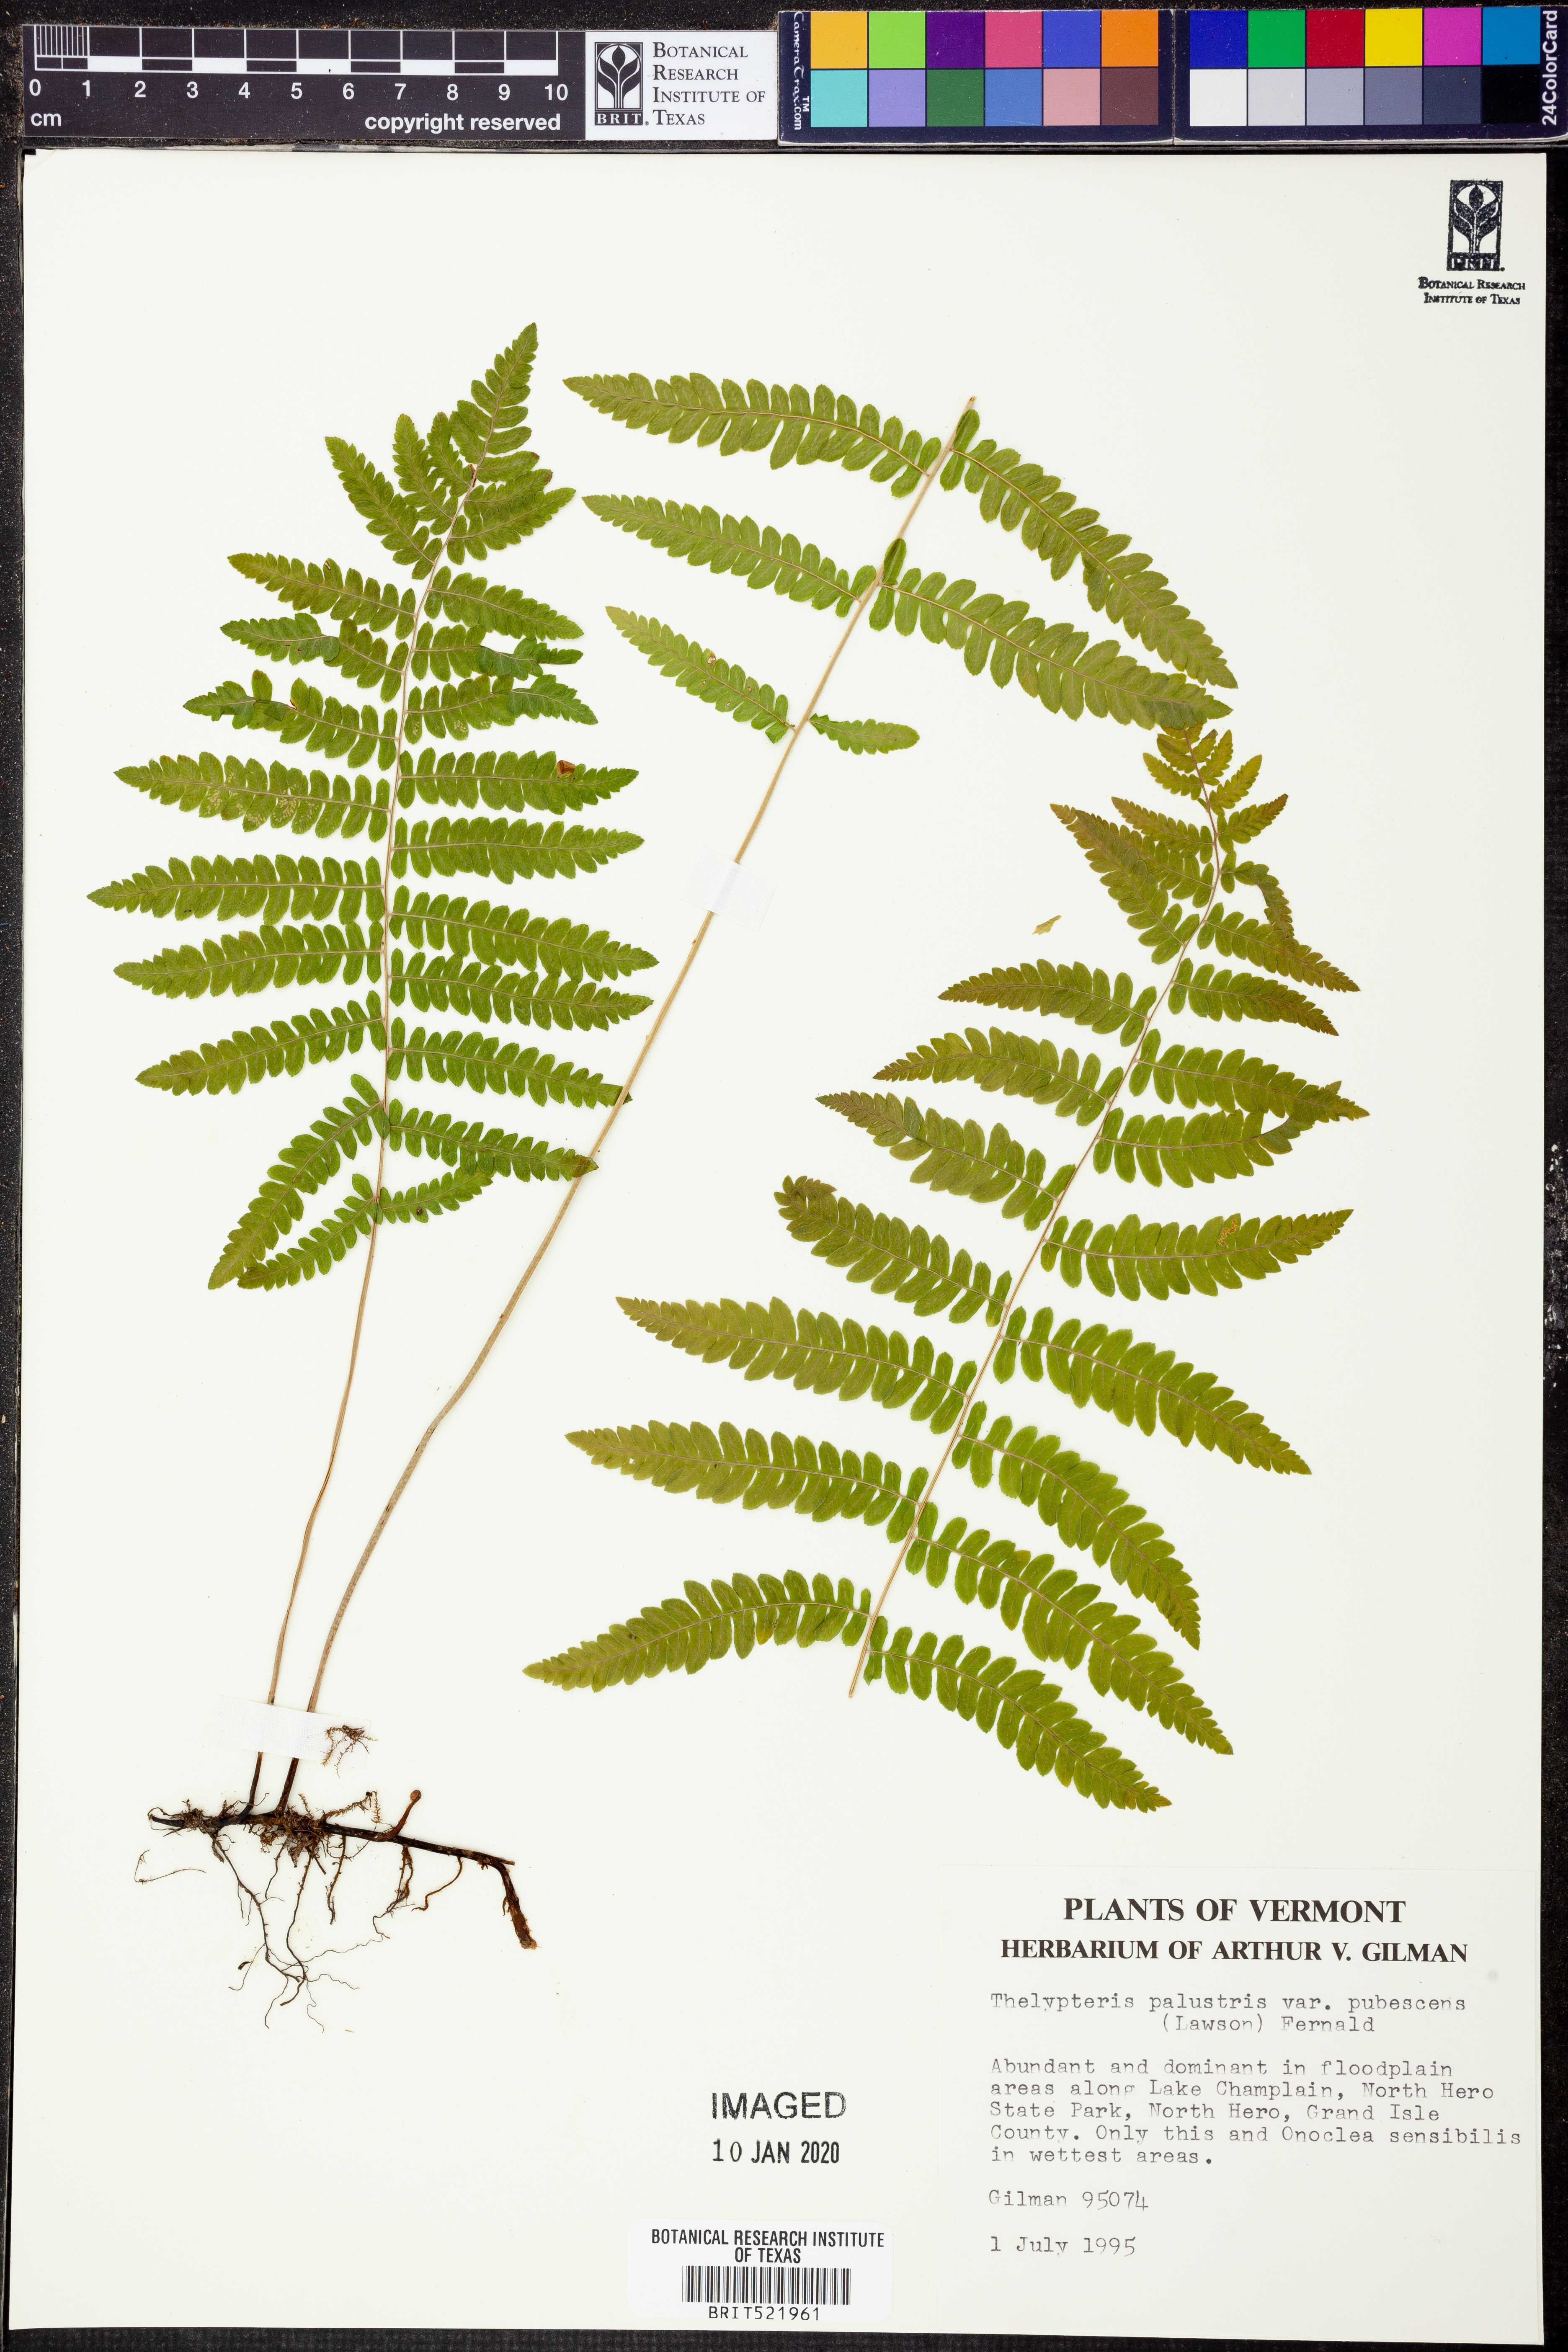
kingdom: Plantae
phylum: Tracheophyta
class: Polypodiopsida
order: Polypodiales
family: Thelypteridaceae
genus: Thelypteris
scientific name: Thelypteris palustris
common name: Marsh fern
